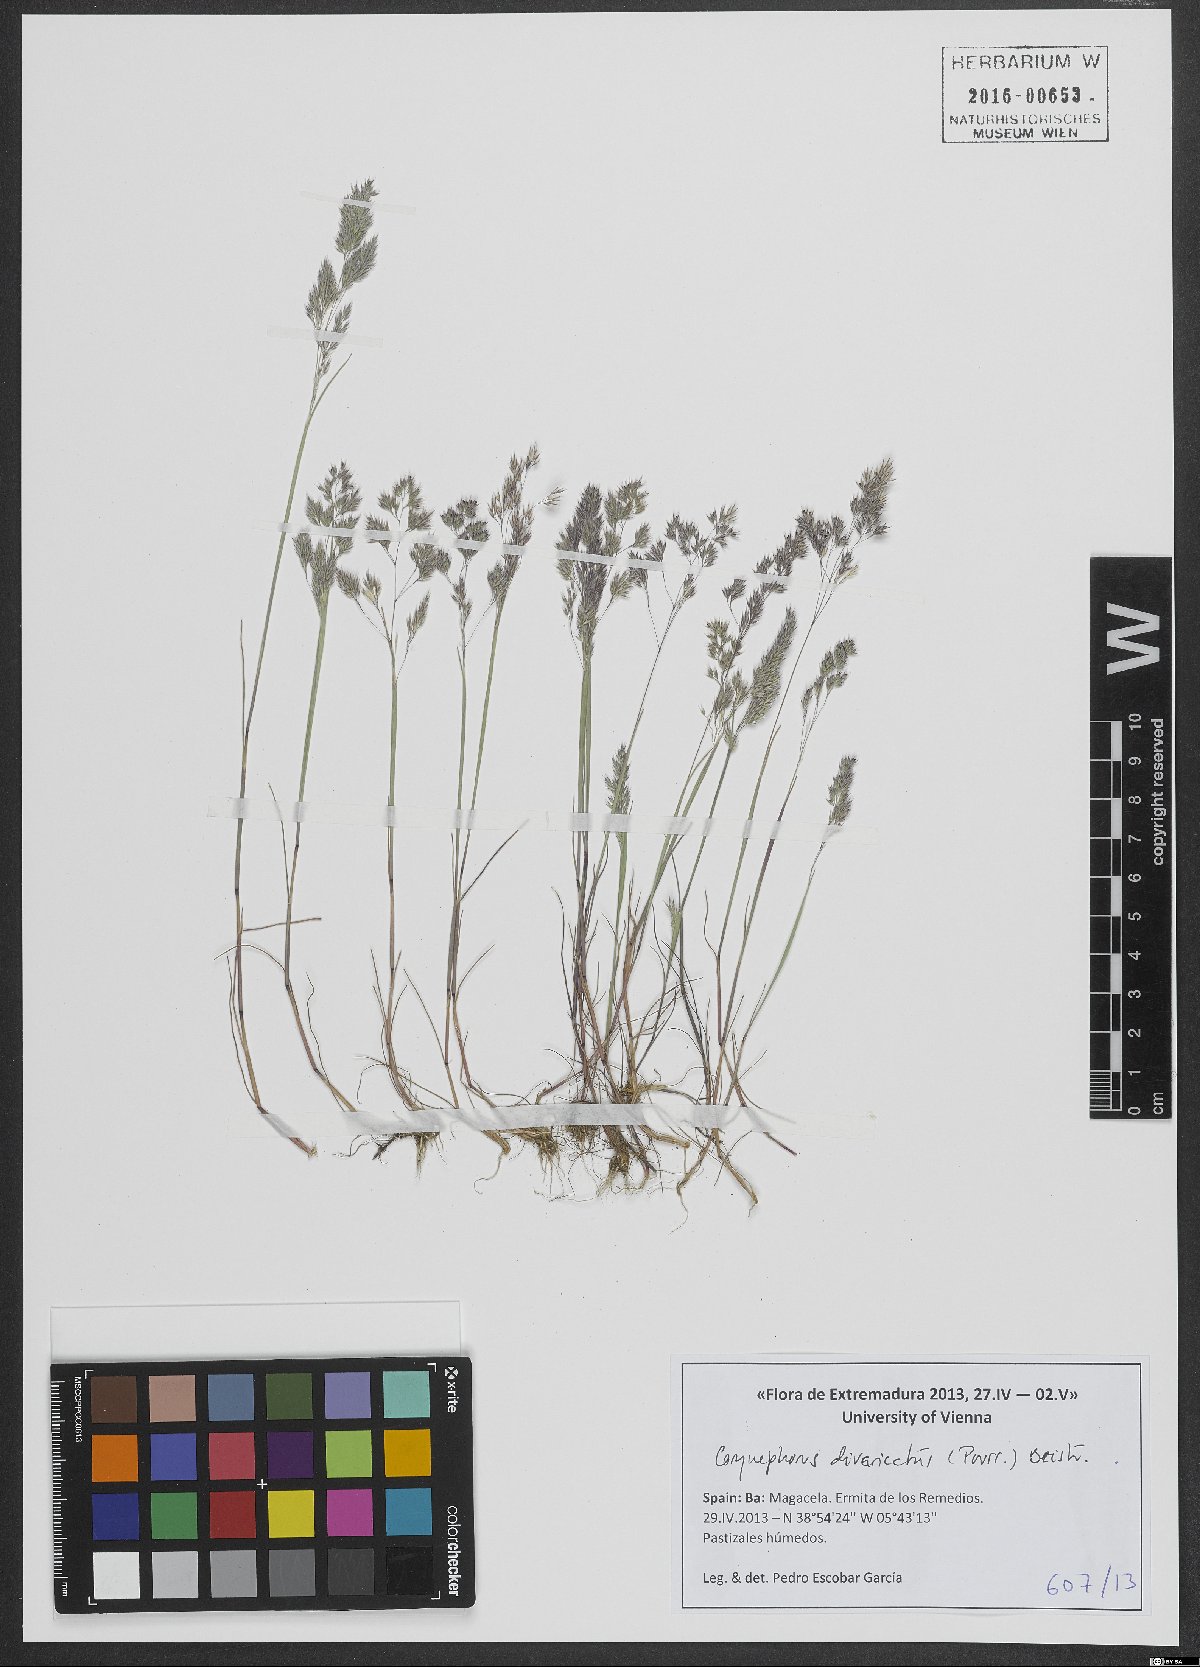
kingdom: Plantae
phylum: Tracheophyta
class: Liliopsida
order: Poales
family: Poaceae
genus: Corynephorus
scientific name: Corynephorus divaricatus
